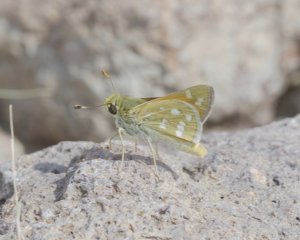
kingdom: Animalia
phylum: Arthropoda
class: Insecta
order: Lepidoptera
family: Hesperiidae
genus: Hesperia
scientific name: Hesperia pahaska
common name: Pahaska Skipper
